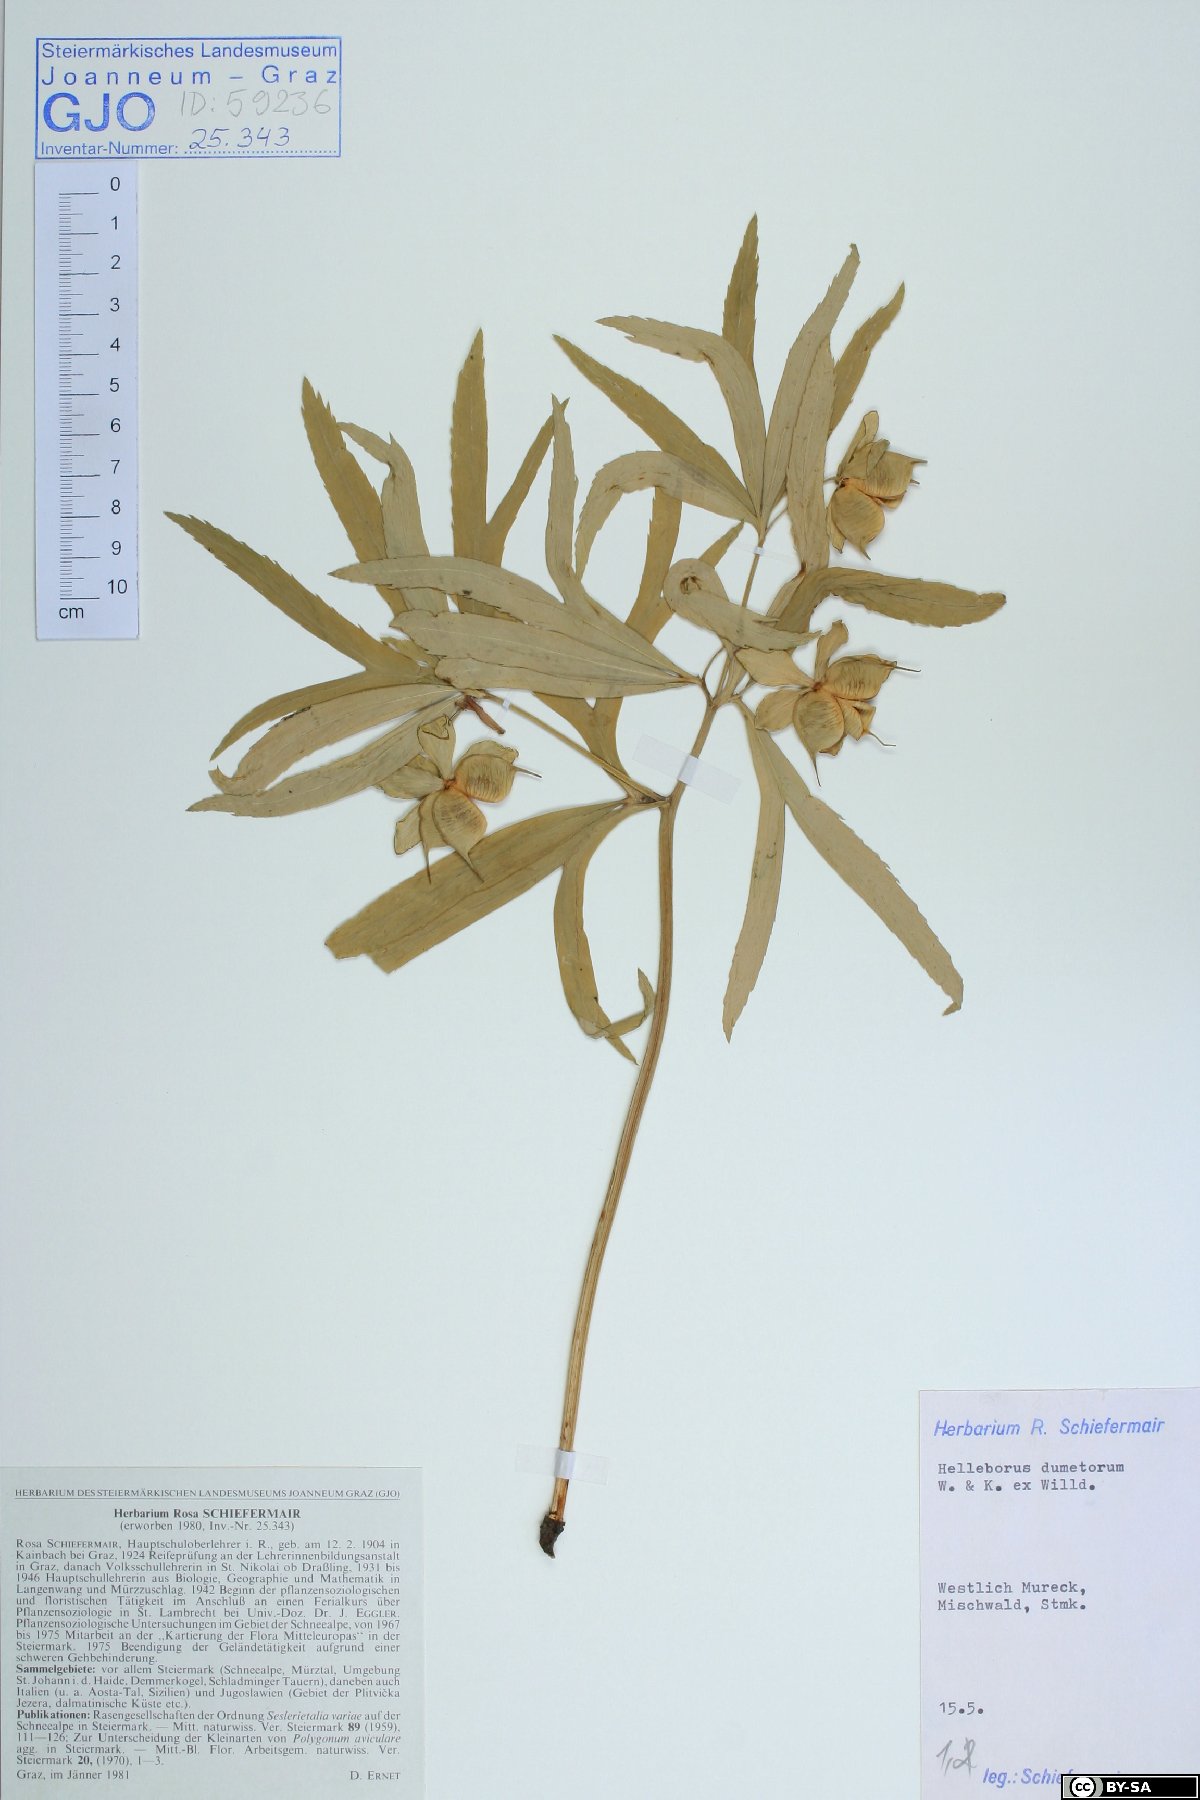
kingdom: Plantae
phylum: Tracheophyta
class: Magnoliopsida
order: Ranunculales
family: Ranunculaceae
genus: Helleborus
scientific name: Helleborus dumetorum
